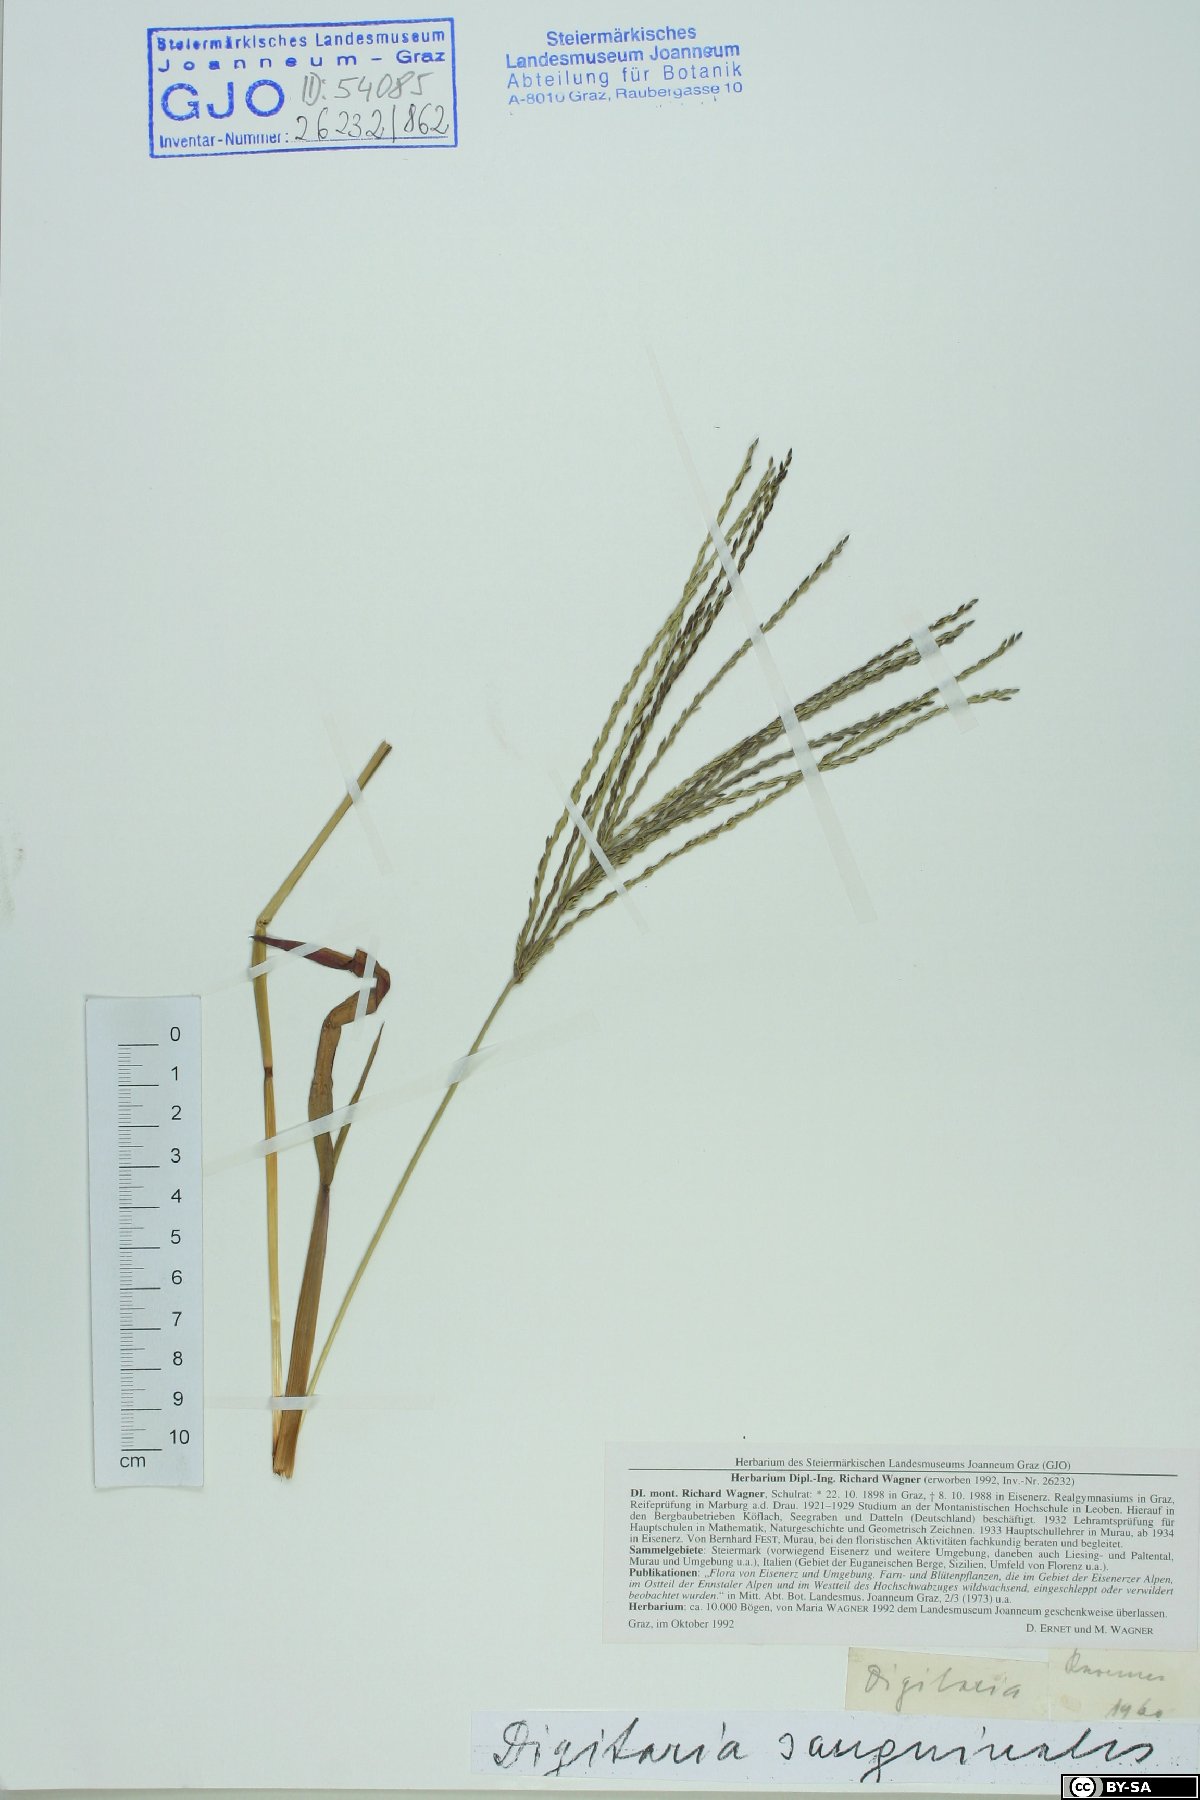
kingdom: Plantae
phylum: Tracheophyta
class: Liliopsida
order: Poales
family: Poaceae
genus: Digitaria
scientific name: Digitaria sanguinalis
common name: Hairy crabgrass
